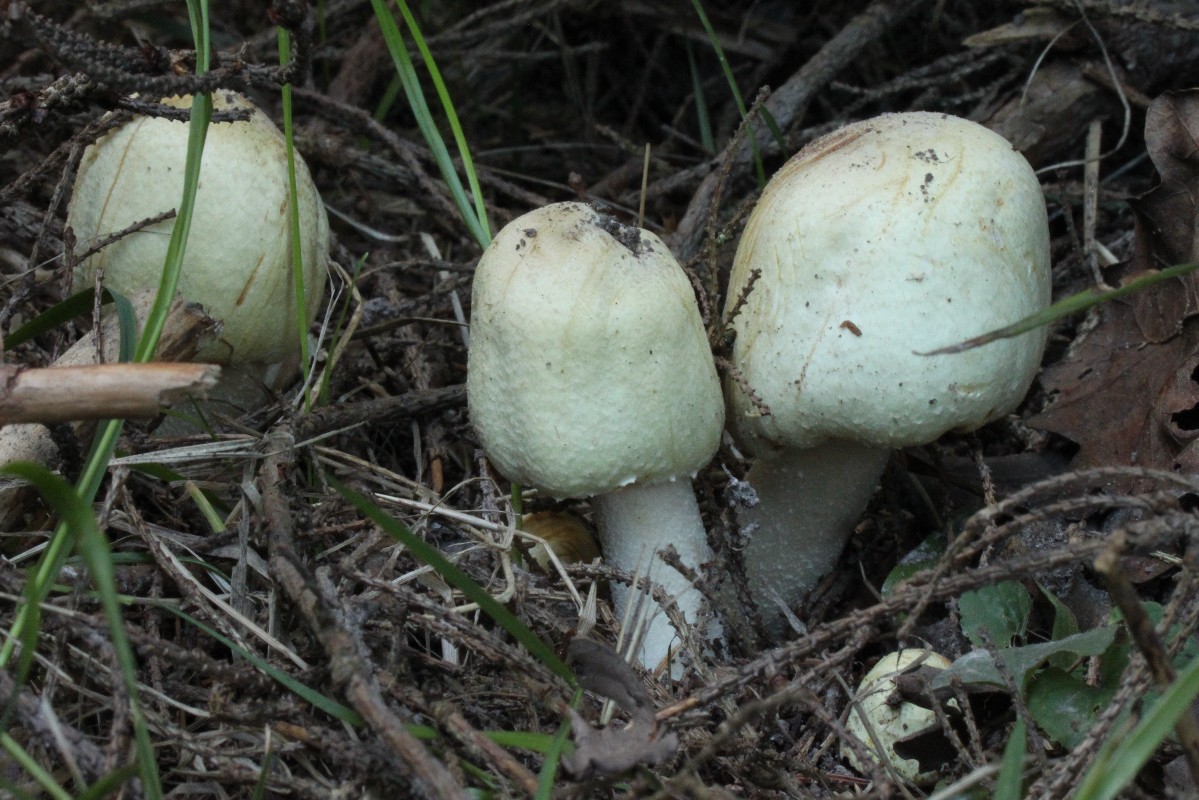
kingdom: Fungi
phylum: Basidiomycota
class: Agaricomycetes
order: Agaricales
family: Agaricaceae
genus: Agaricus
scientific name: Agaricus sylvicola
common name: skiveknoldet champignon
